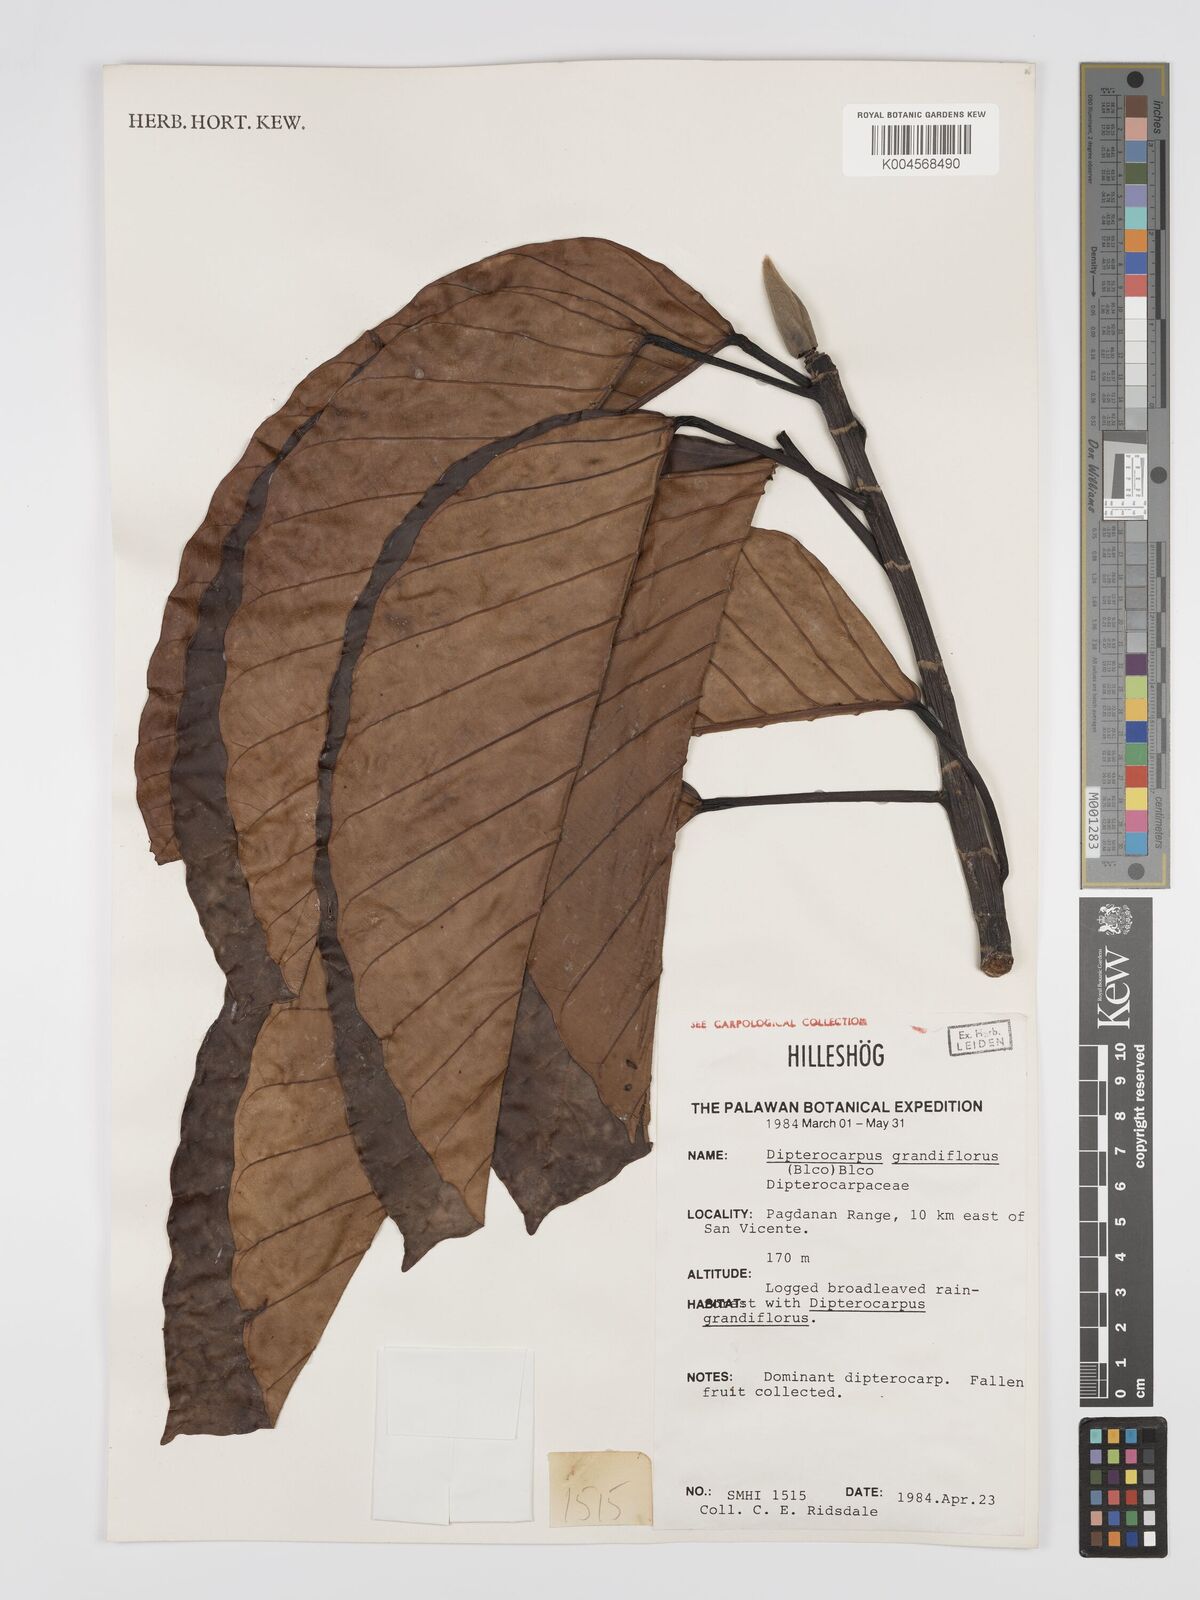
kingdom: Plantae
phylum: Tracheophyta
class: Magnoliopsida
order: Malvales
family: Dipterocarpaceae
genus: Dipterocarpus
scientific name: Dipterocarpus grandiflorus
